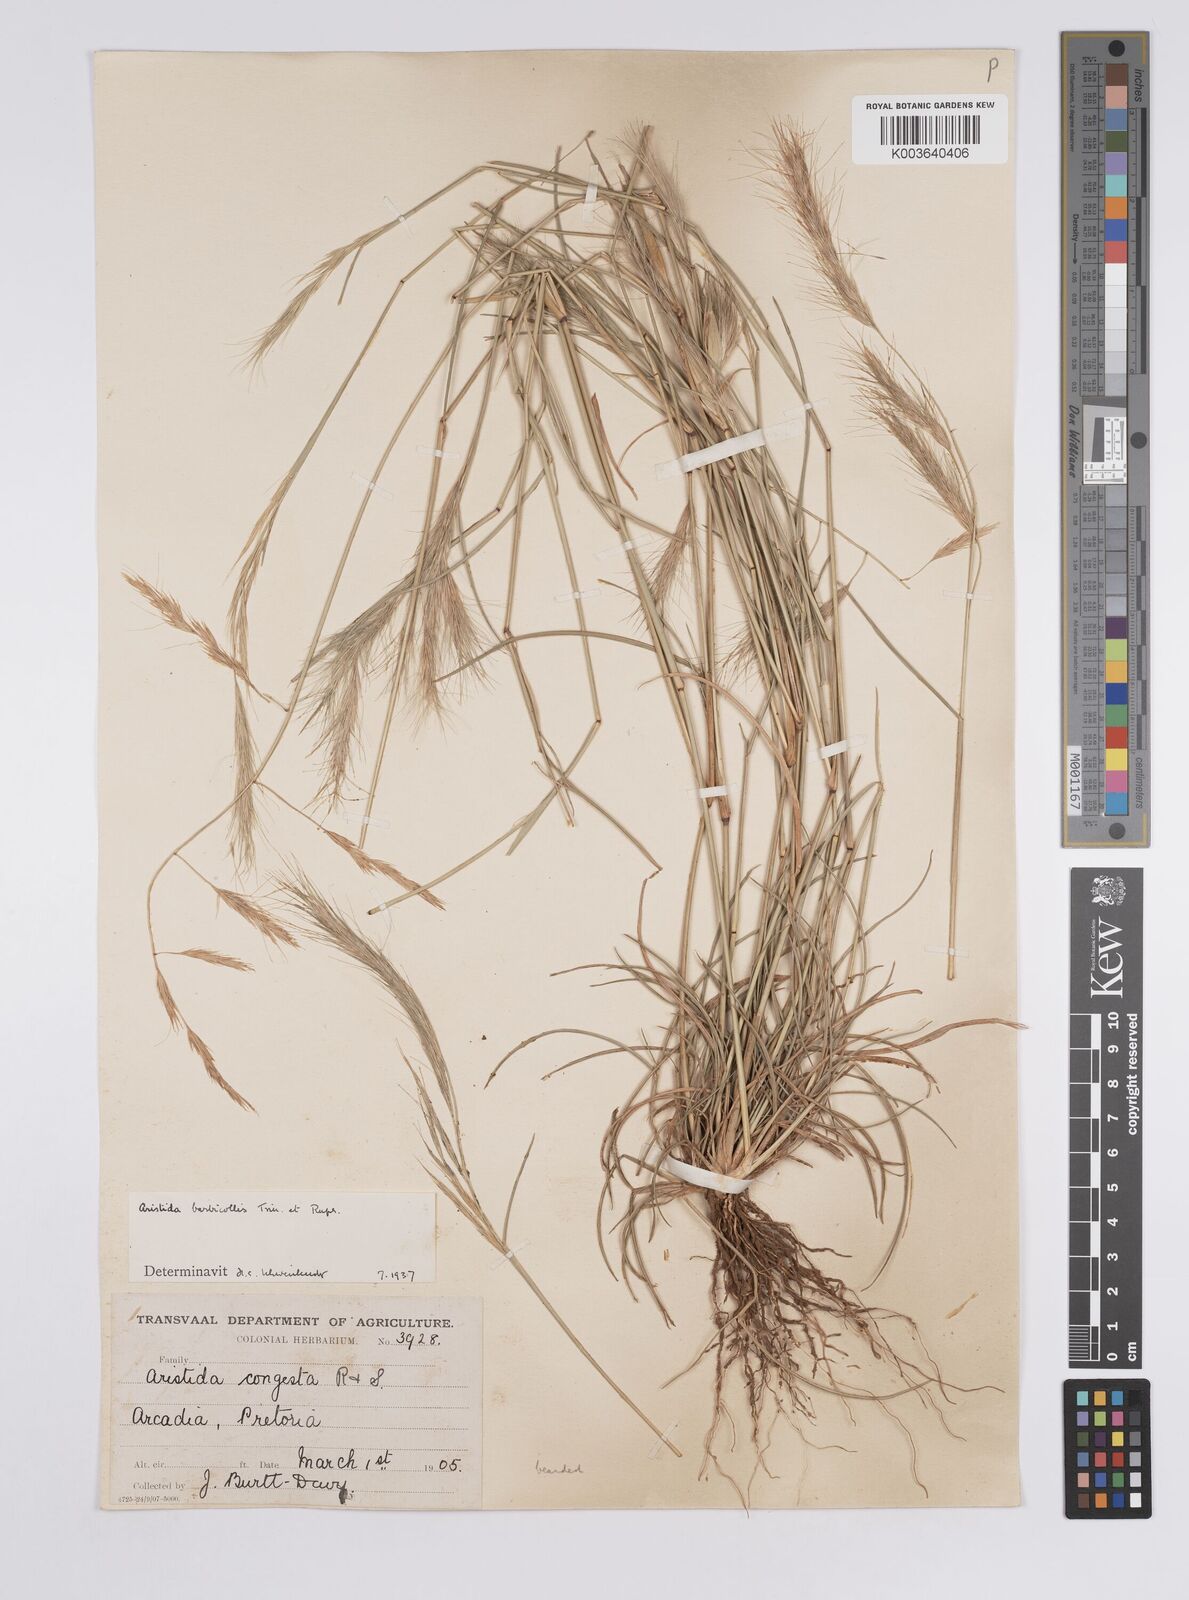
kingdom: Plantae
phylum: Tracheophyta
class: Liliopsida
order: Poales
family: Poaceae
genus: Aristida
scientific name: Aristida barbicollis
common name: Spreading prickle grass
